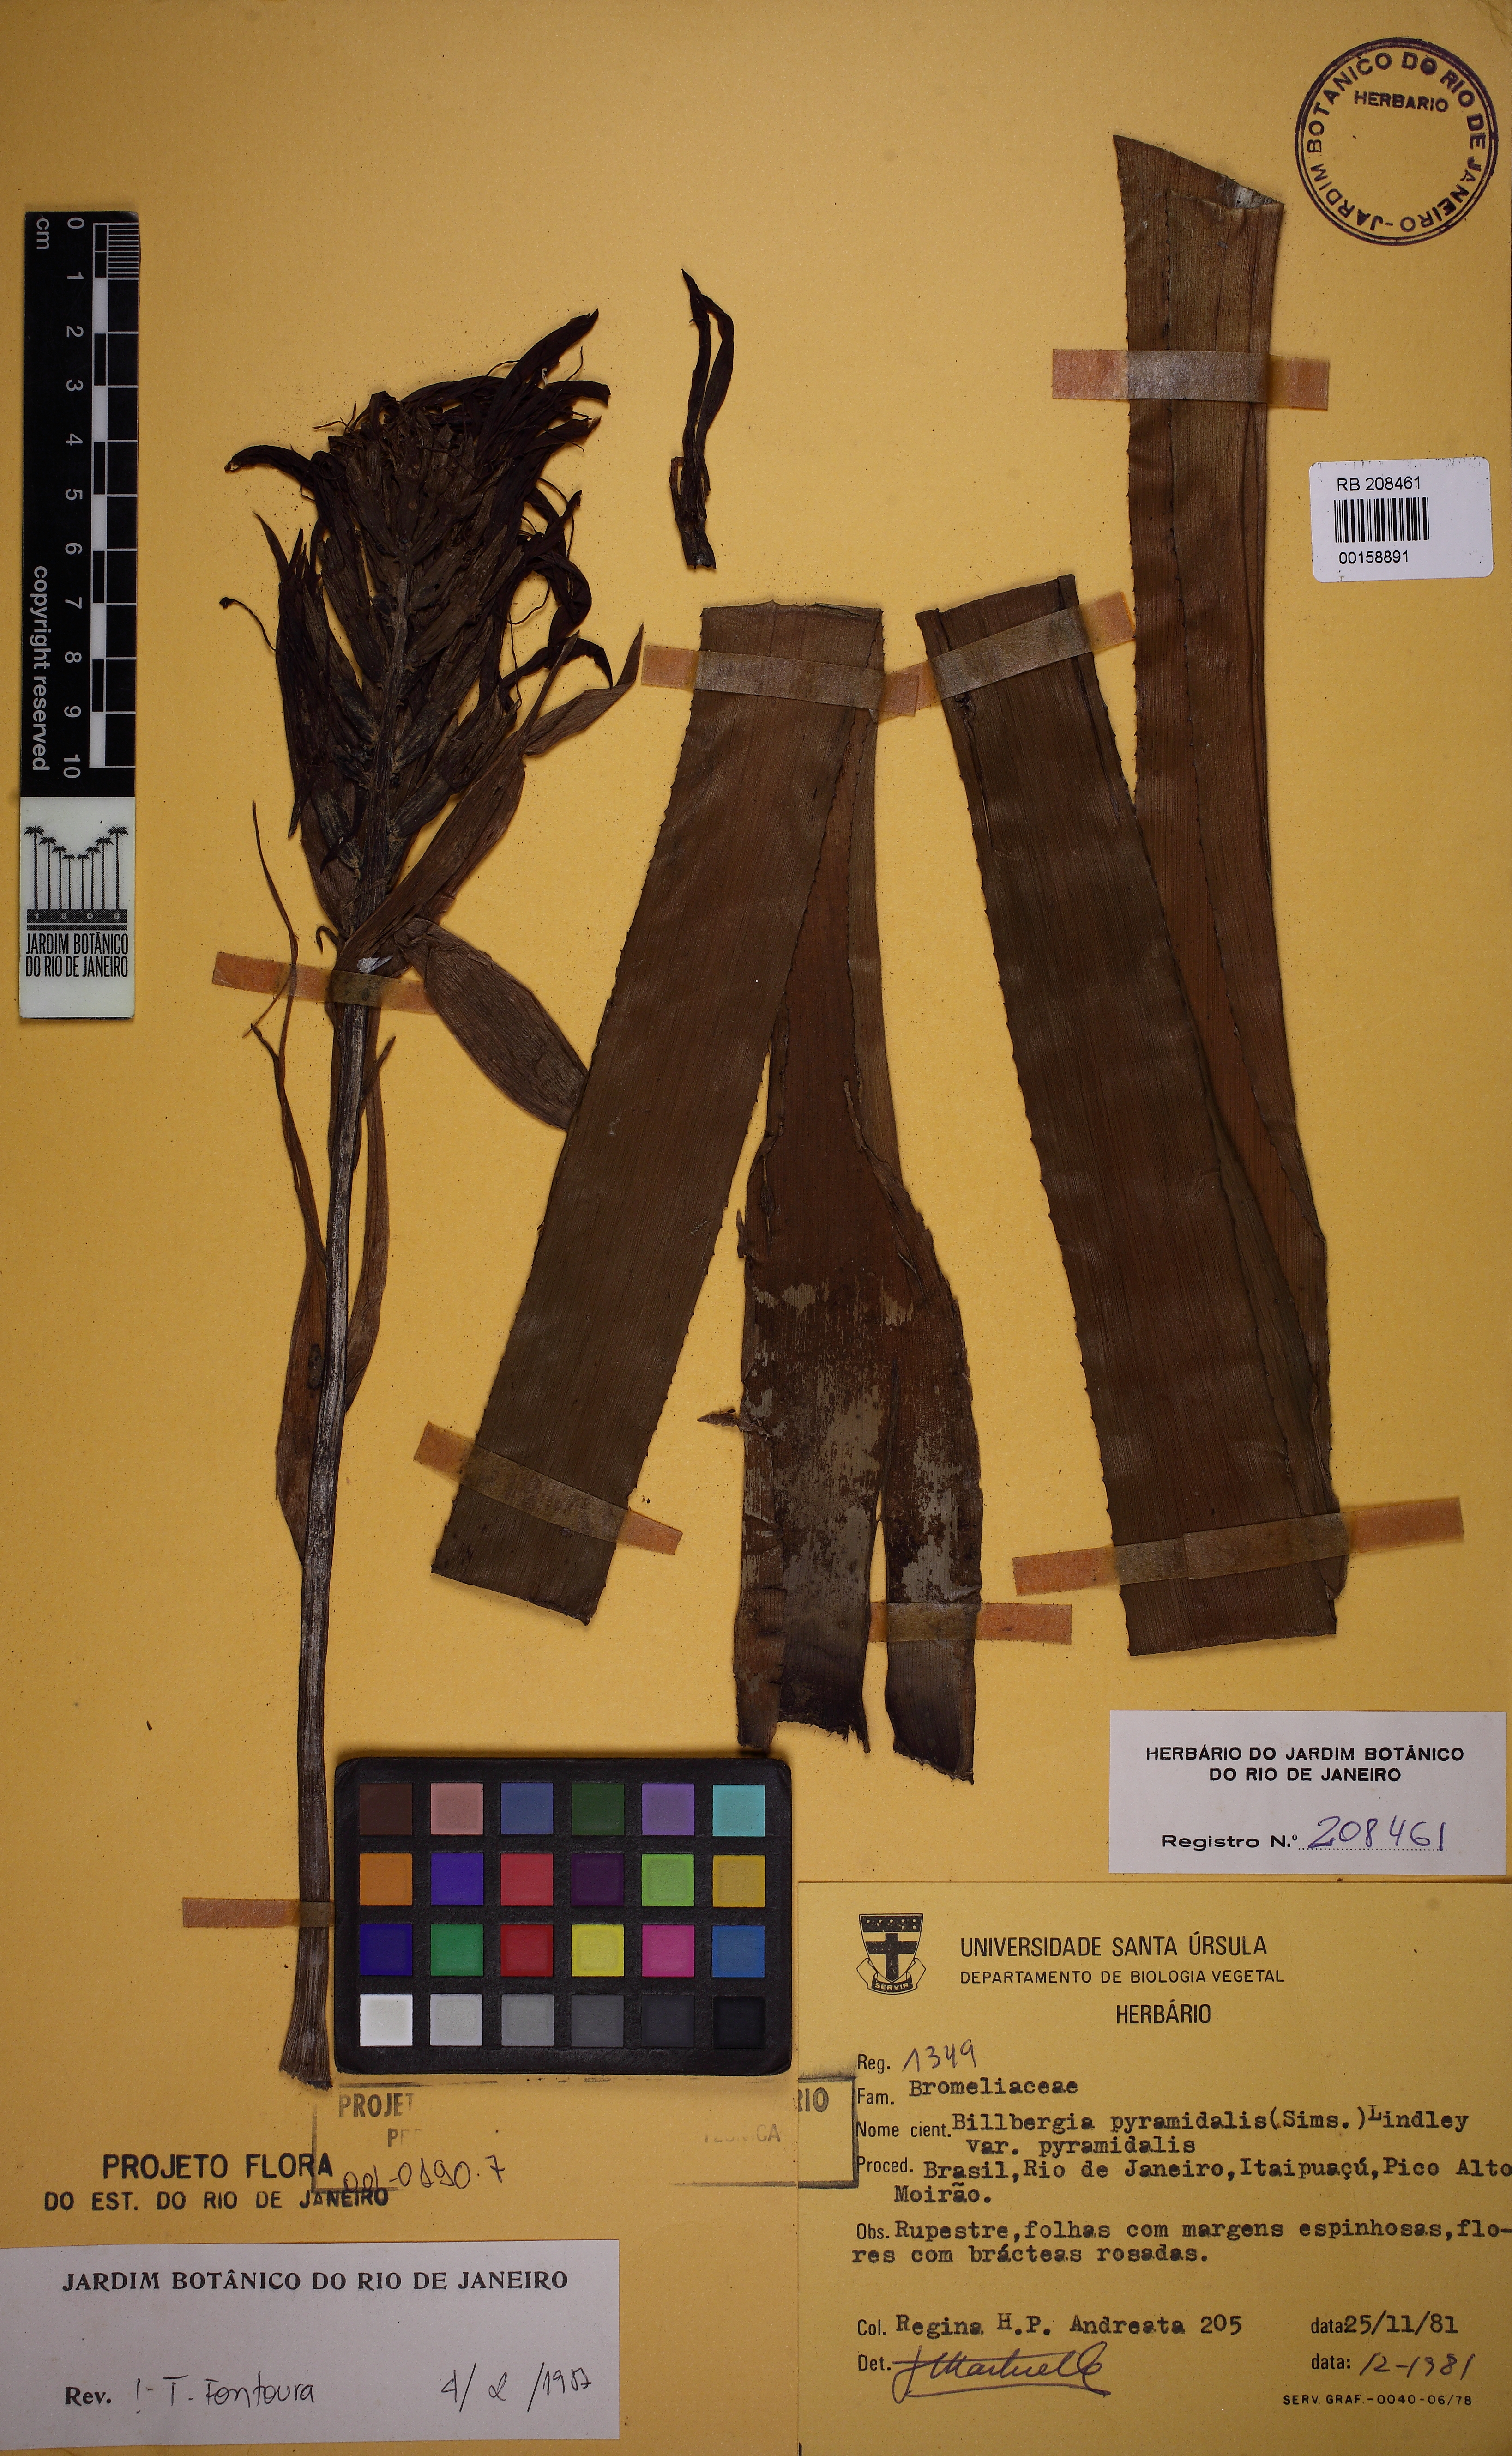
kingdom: Plantae
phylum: Tracheophyta
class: Liliopsida
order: Poales
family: Bromeliaceae
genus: Billbergia
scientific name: Billbergia pyramidalis
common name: Foolproofplant
